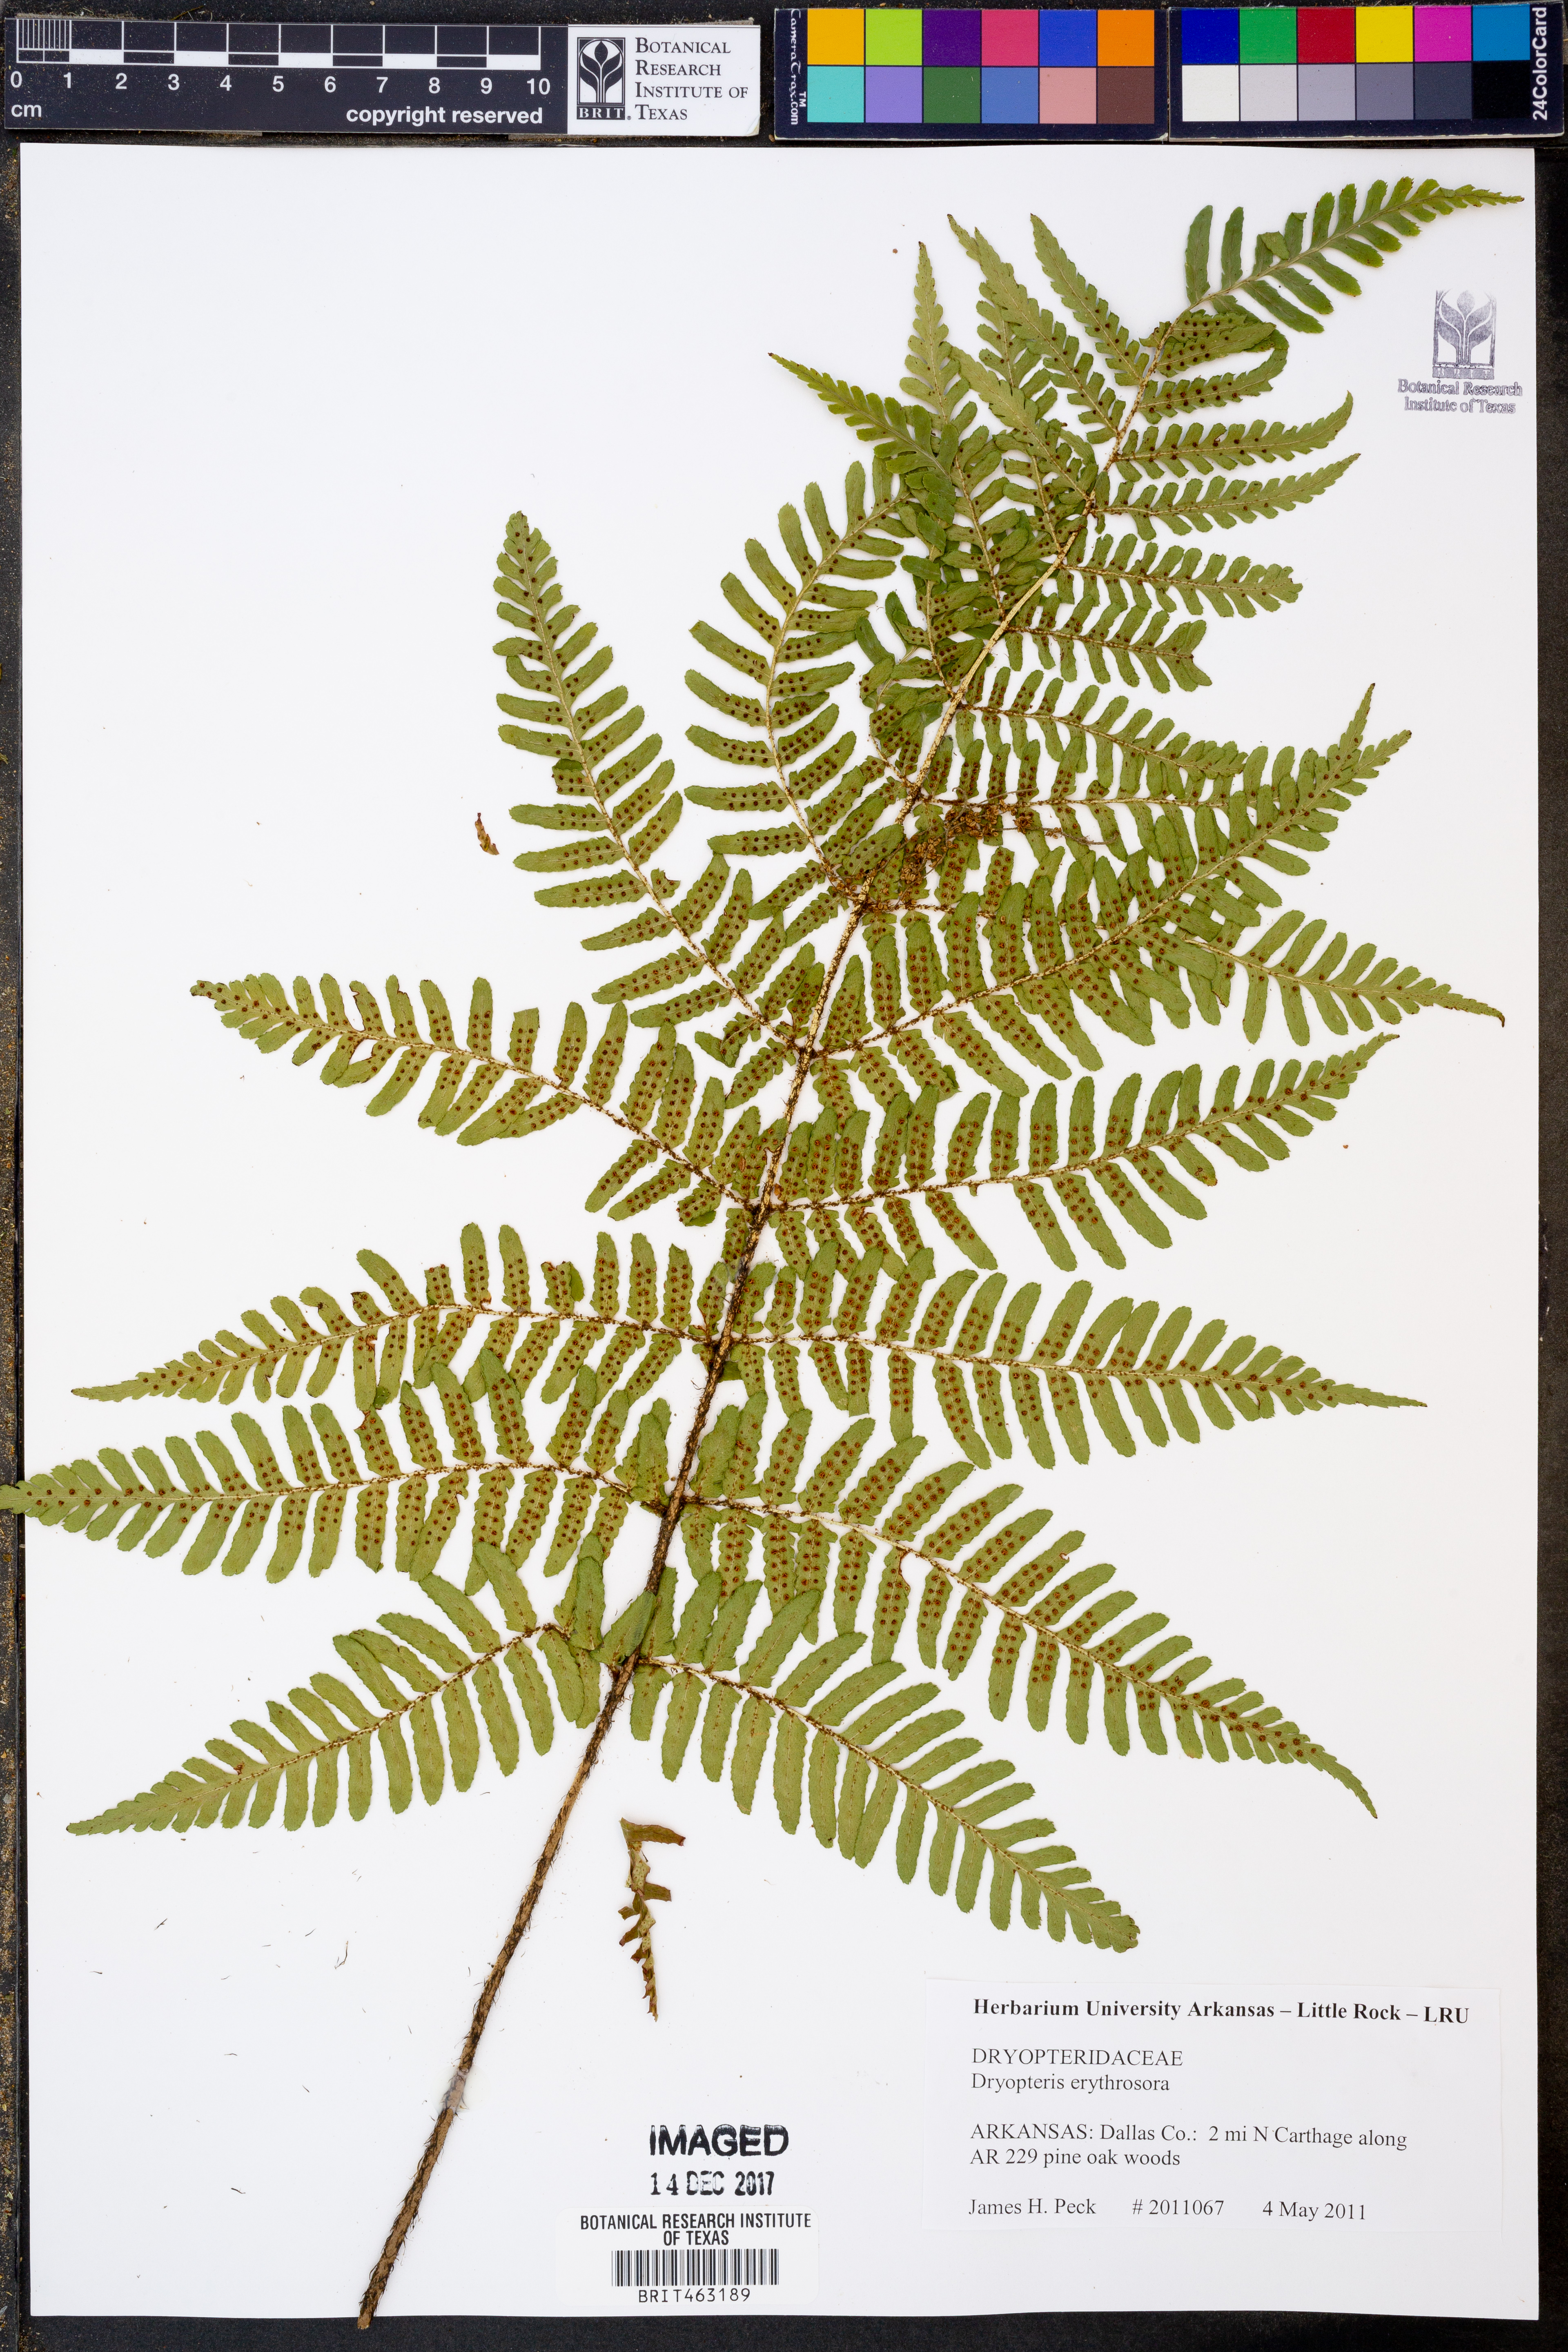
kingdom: Plantae
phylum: Tracheophyta
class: Polypodiopsida
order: Polypodiales
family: Dryopteridaceae
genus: Dryopteris
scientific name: Dryopteris erythrosora
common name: Autumn fern
